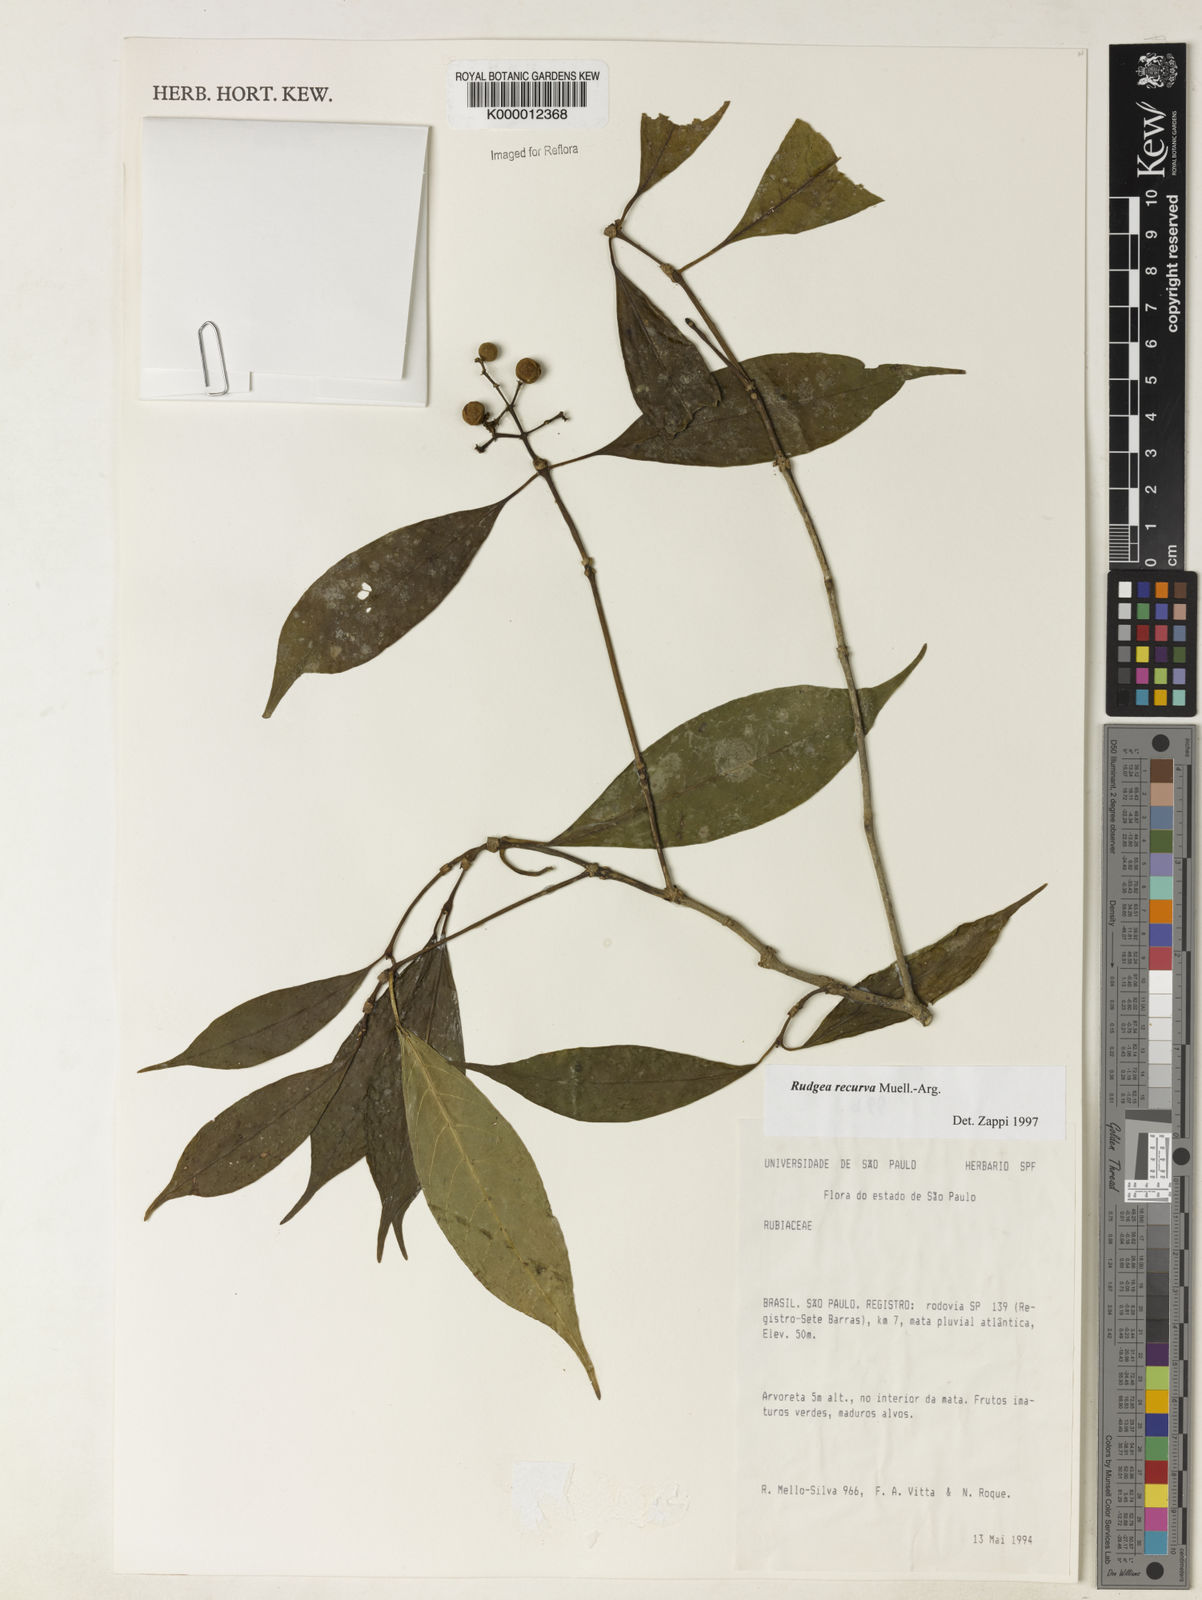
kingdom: Plantae
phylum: Tracheophyta
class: Magnoliopsida
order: Gentianales
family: Rubiaceae
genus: Rudgea
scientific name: Rudgea recurva
